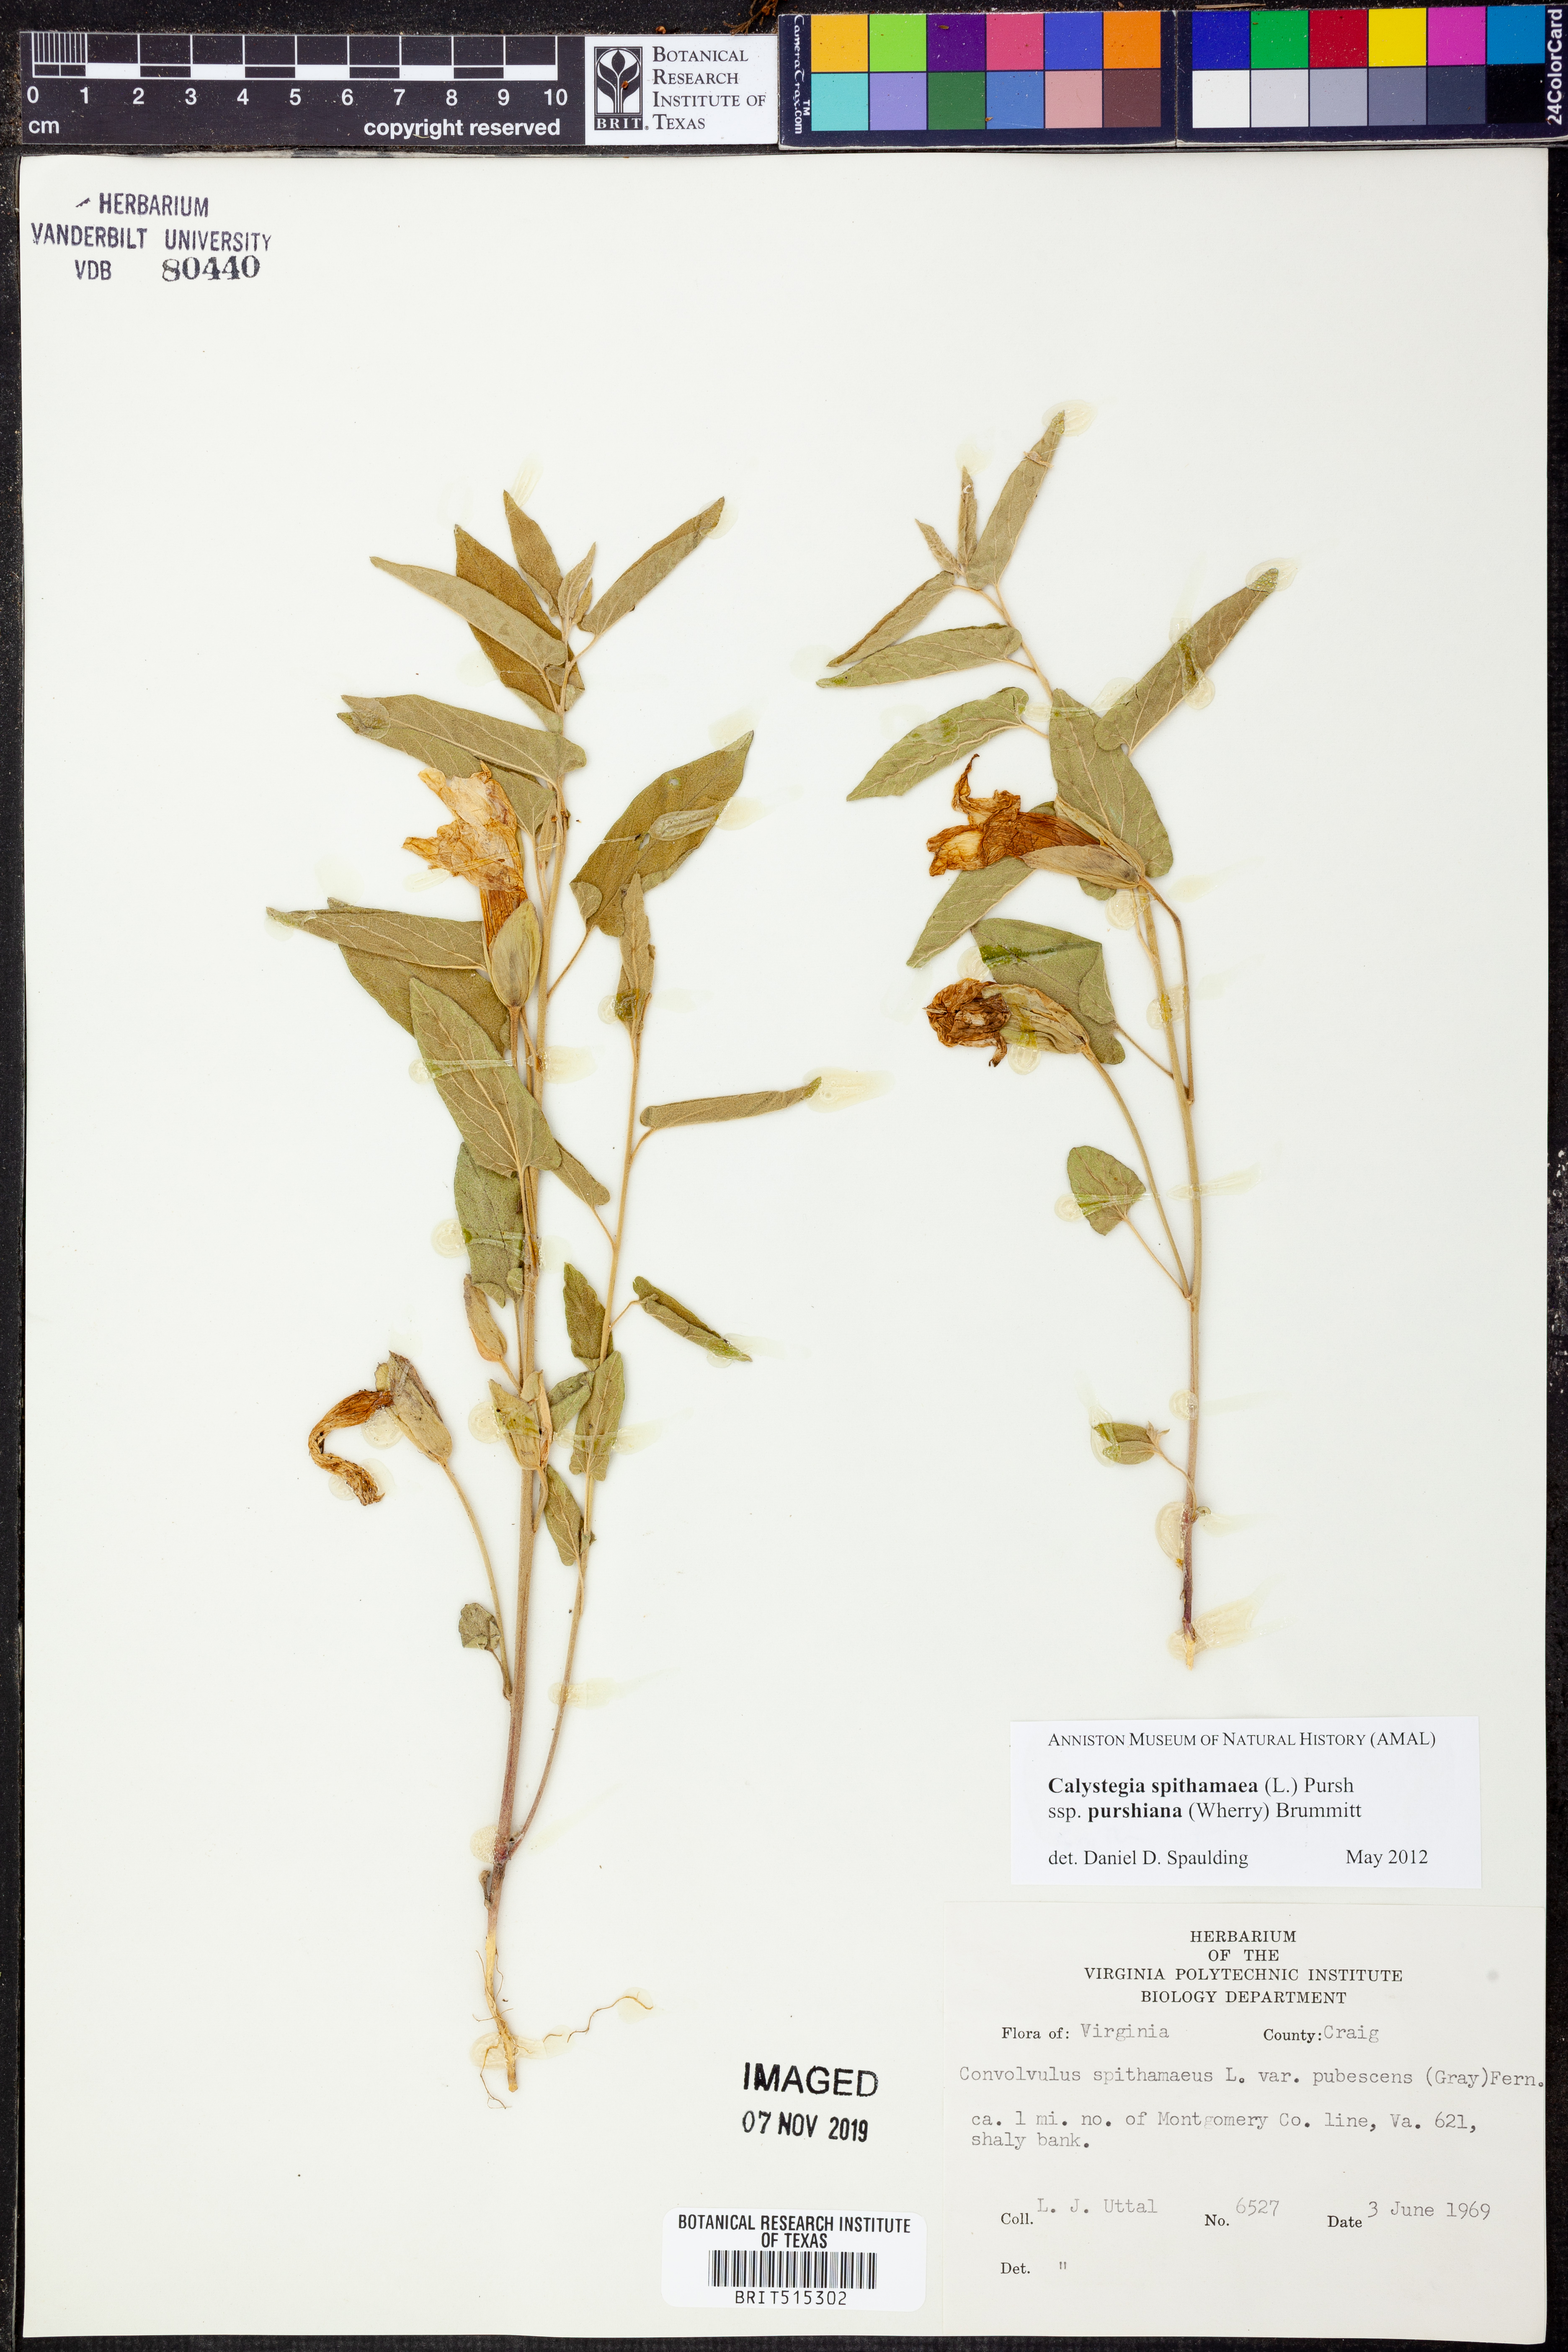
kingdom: Plantae
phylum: Tracheophyta
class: Magnoliopsida
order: Solanales
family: Convolvulaceae
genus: Calystegia
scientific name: Calystegia spithamaea
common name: Dwarf bindweed
